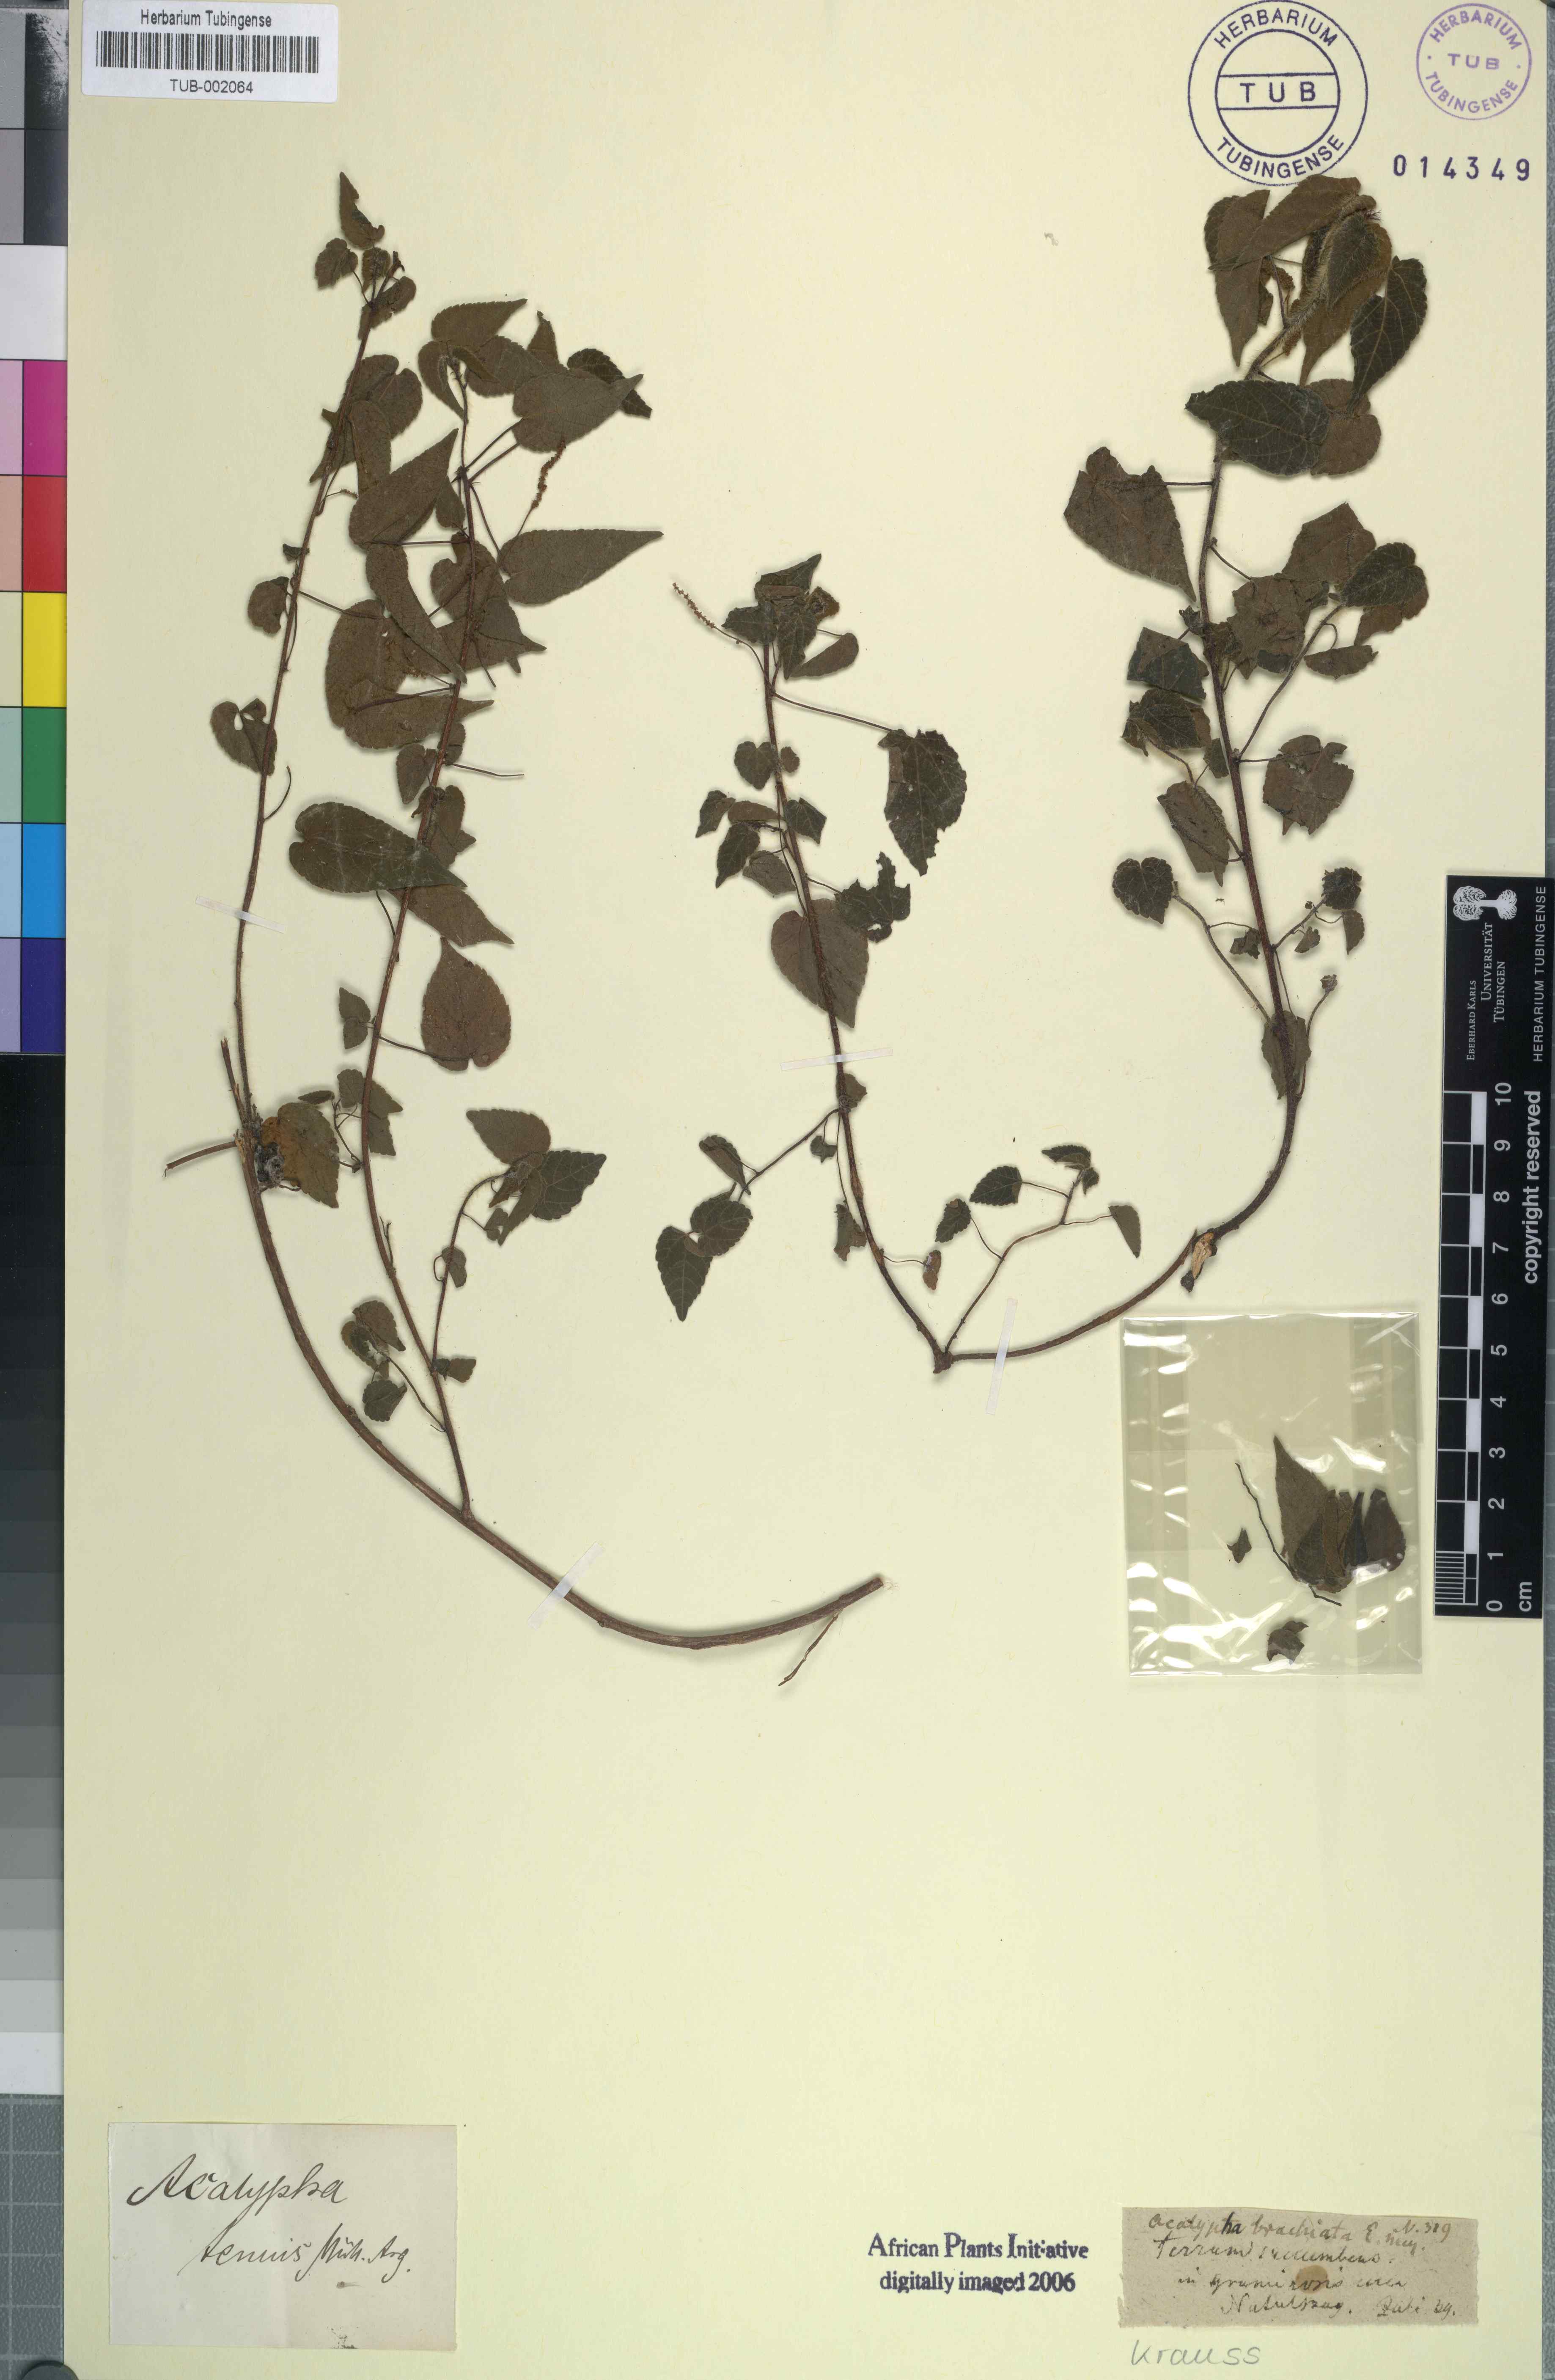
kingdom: Plantae
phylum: Tracheophyta
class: Magnoliopsida
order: Malpighiales
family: Euphorbiaceae
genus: Acalypha
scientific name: Acalypha petiolaris
